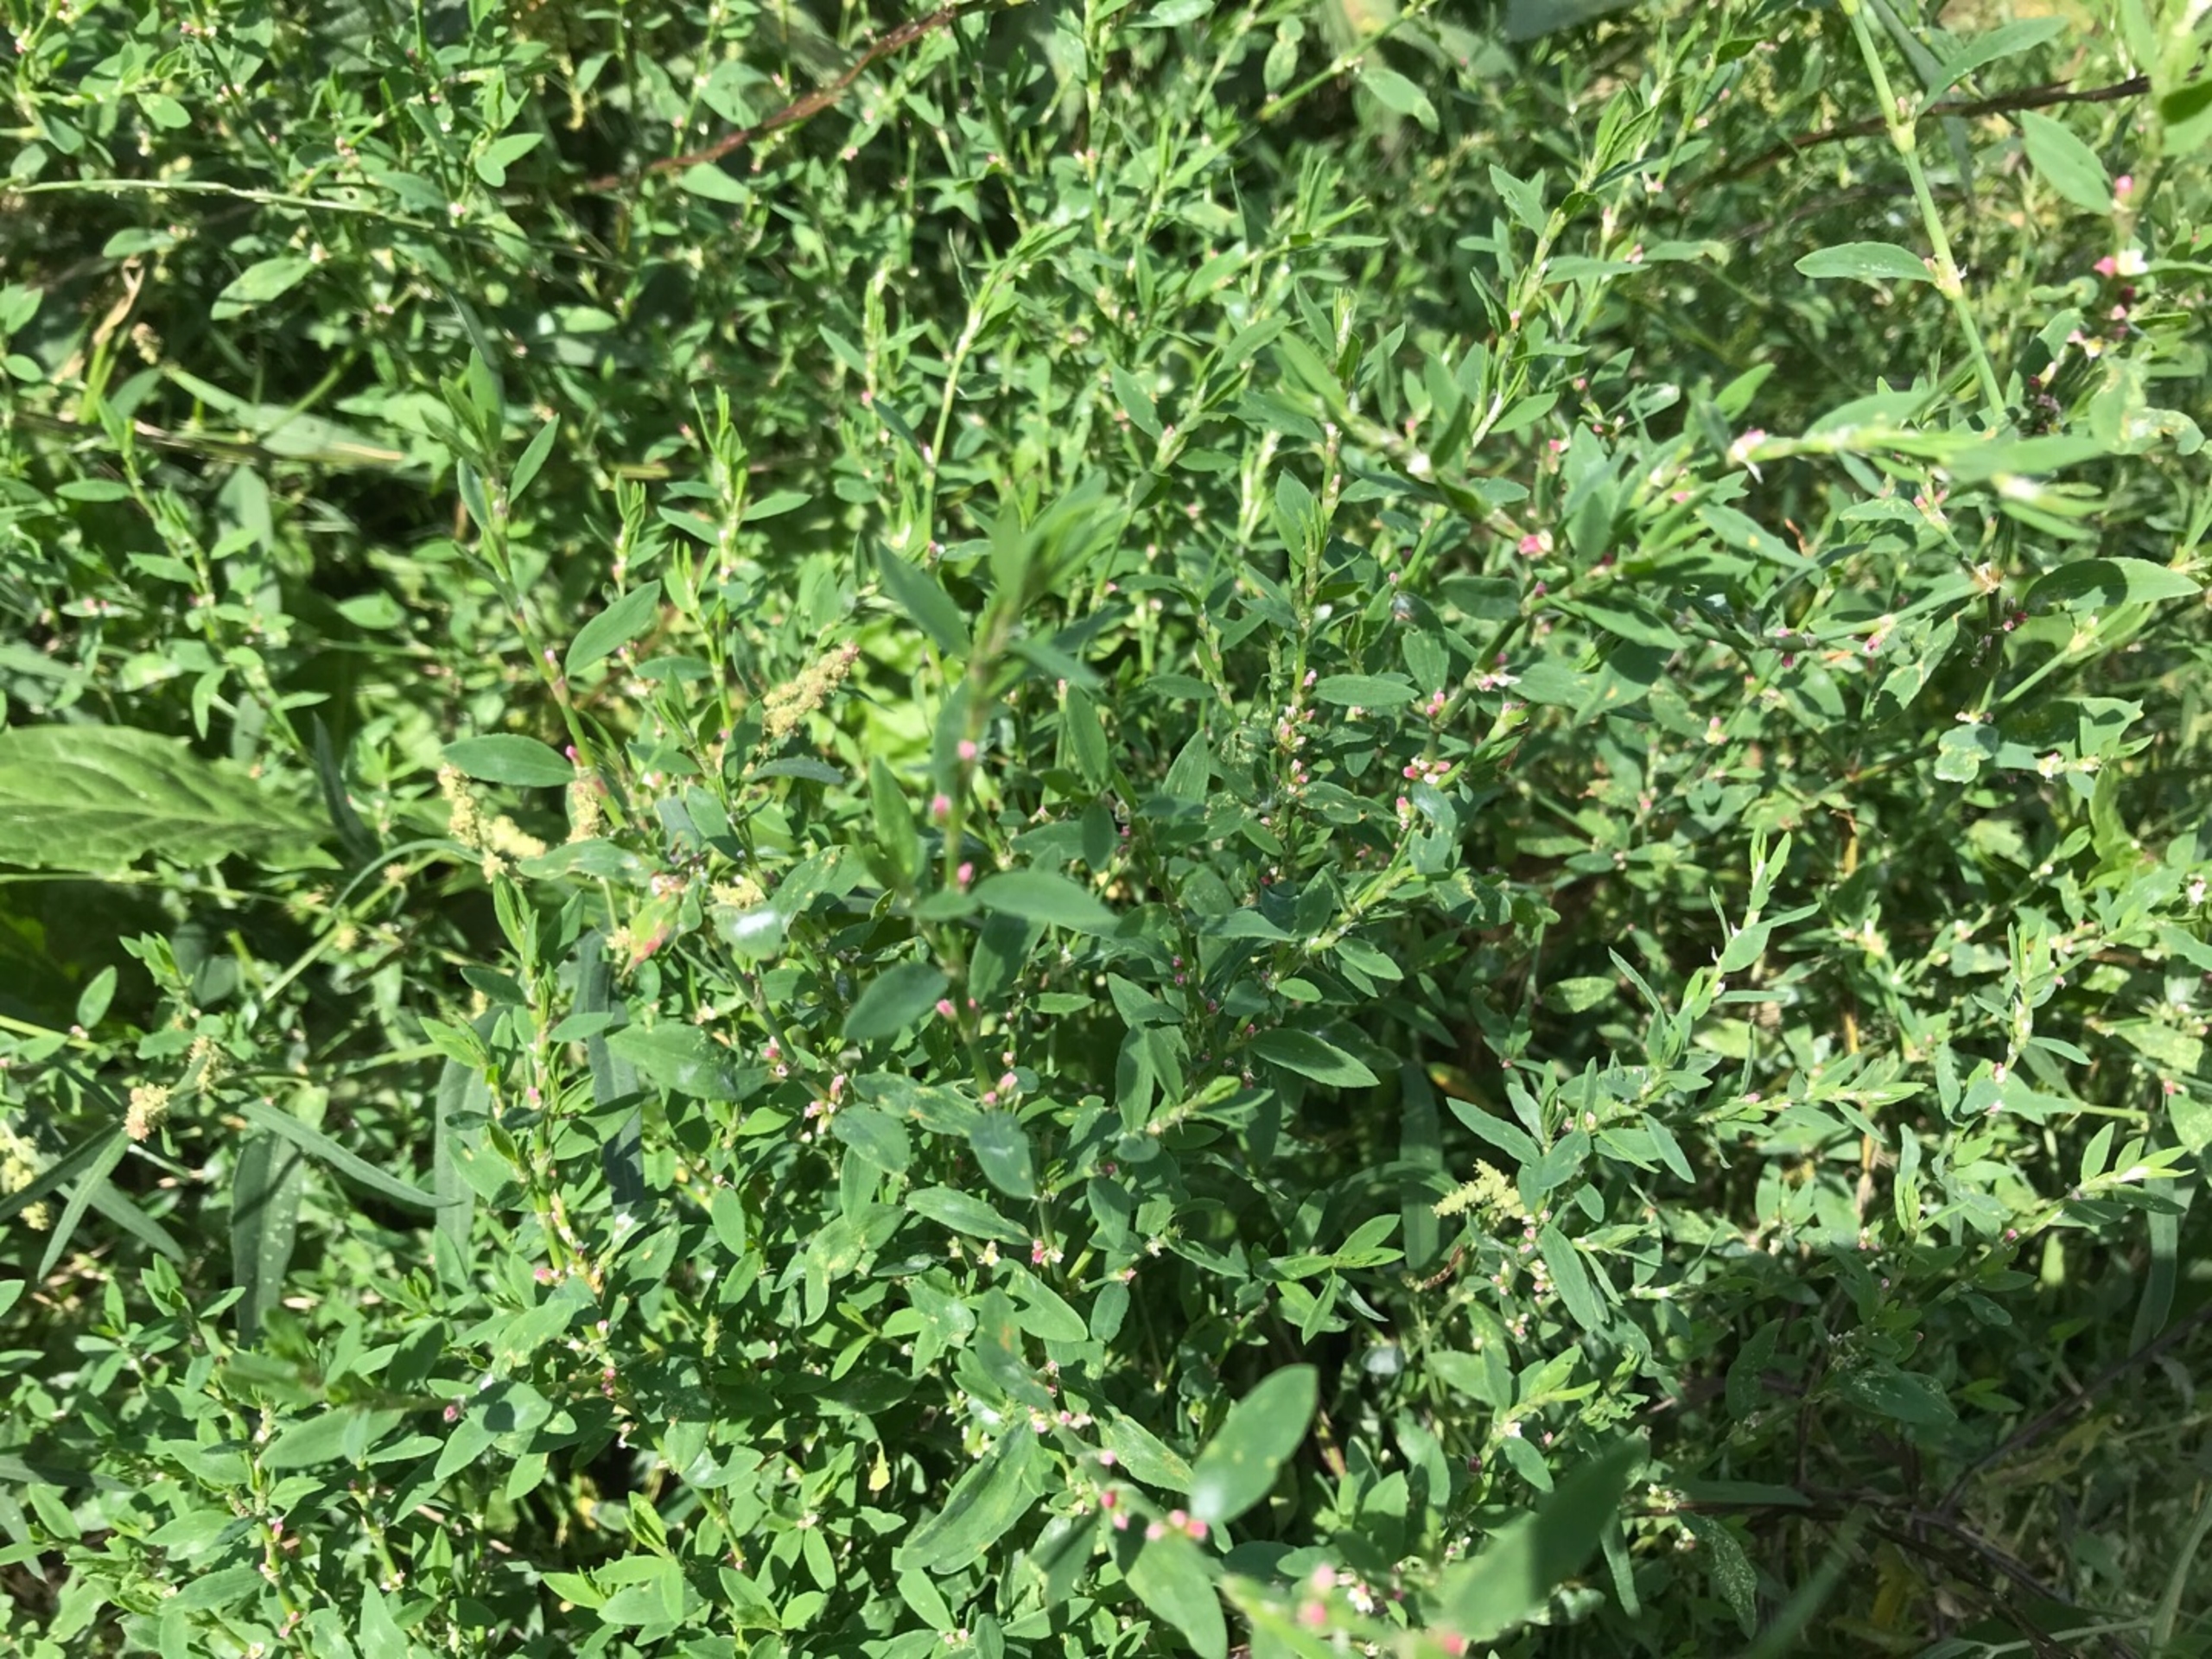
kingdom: Plantae
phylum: Tracheophyta
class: Magnoliopsida
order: Caryophyllales
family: Polygonaceae
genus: Polygonum
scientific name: Polygonum arenastrum
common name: Liggende vej-pileurt
